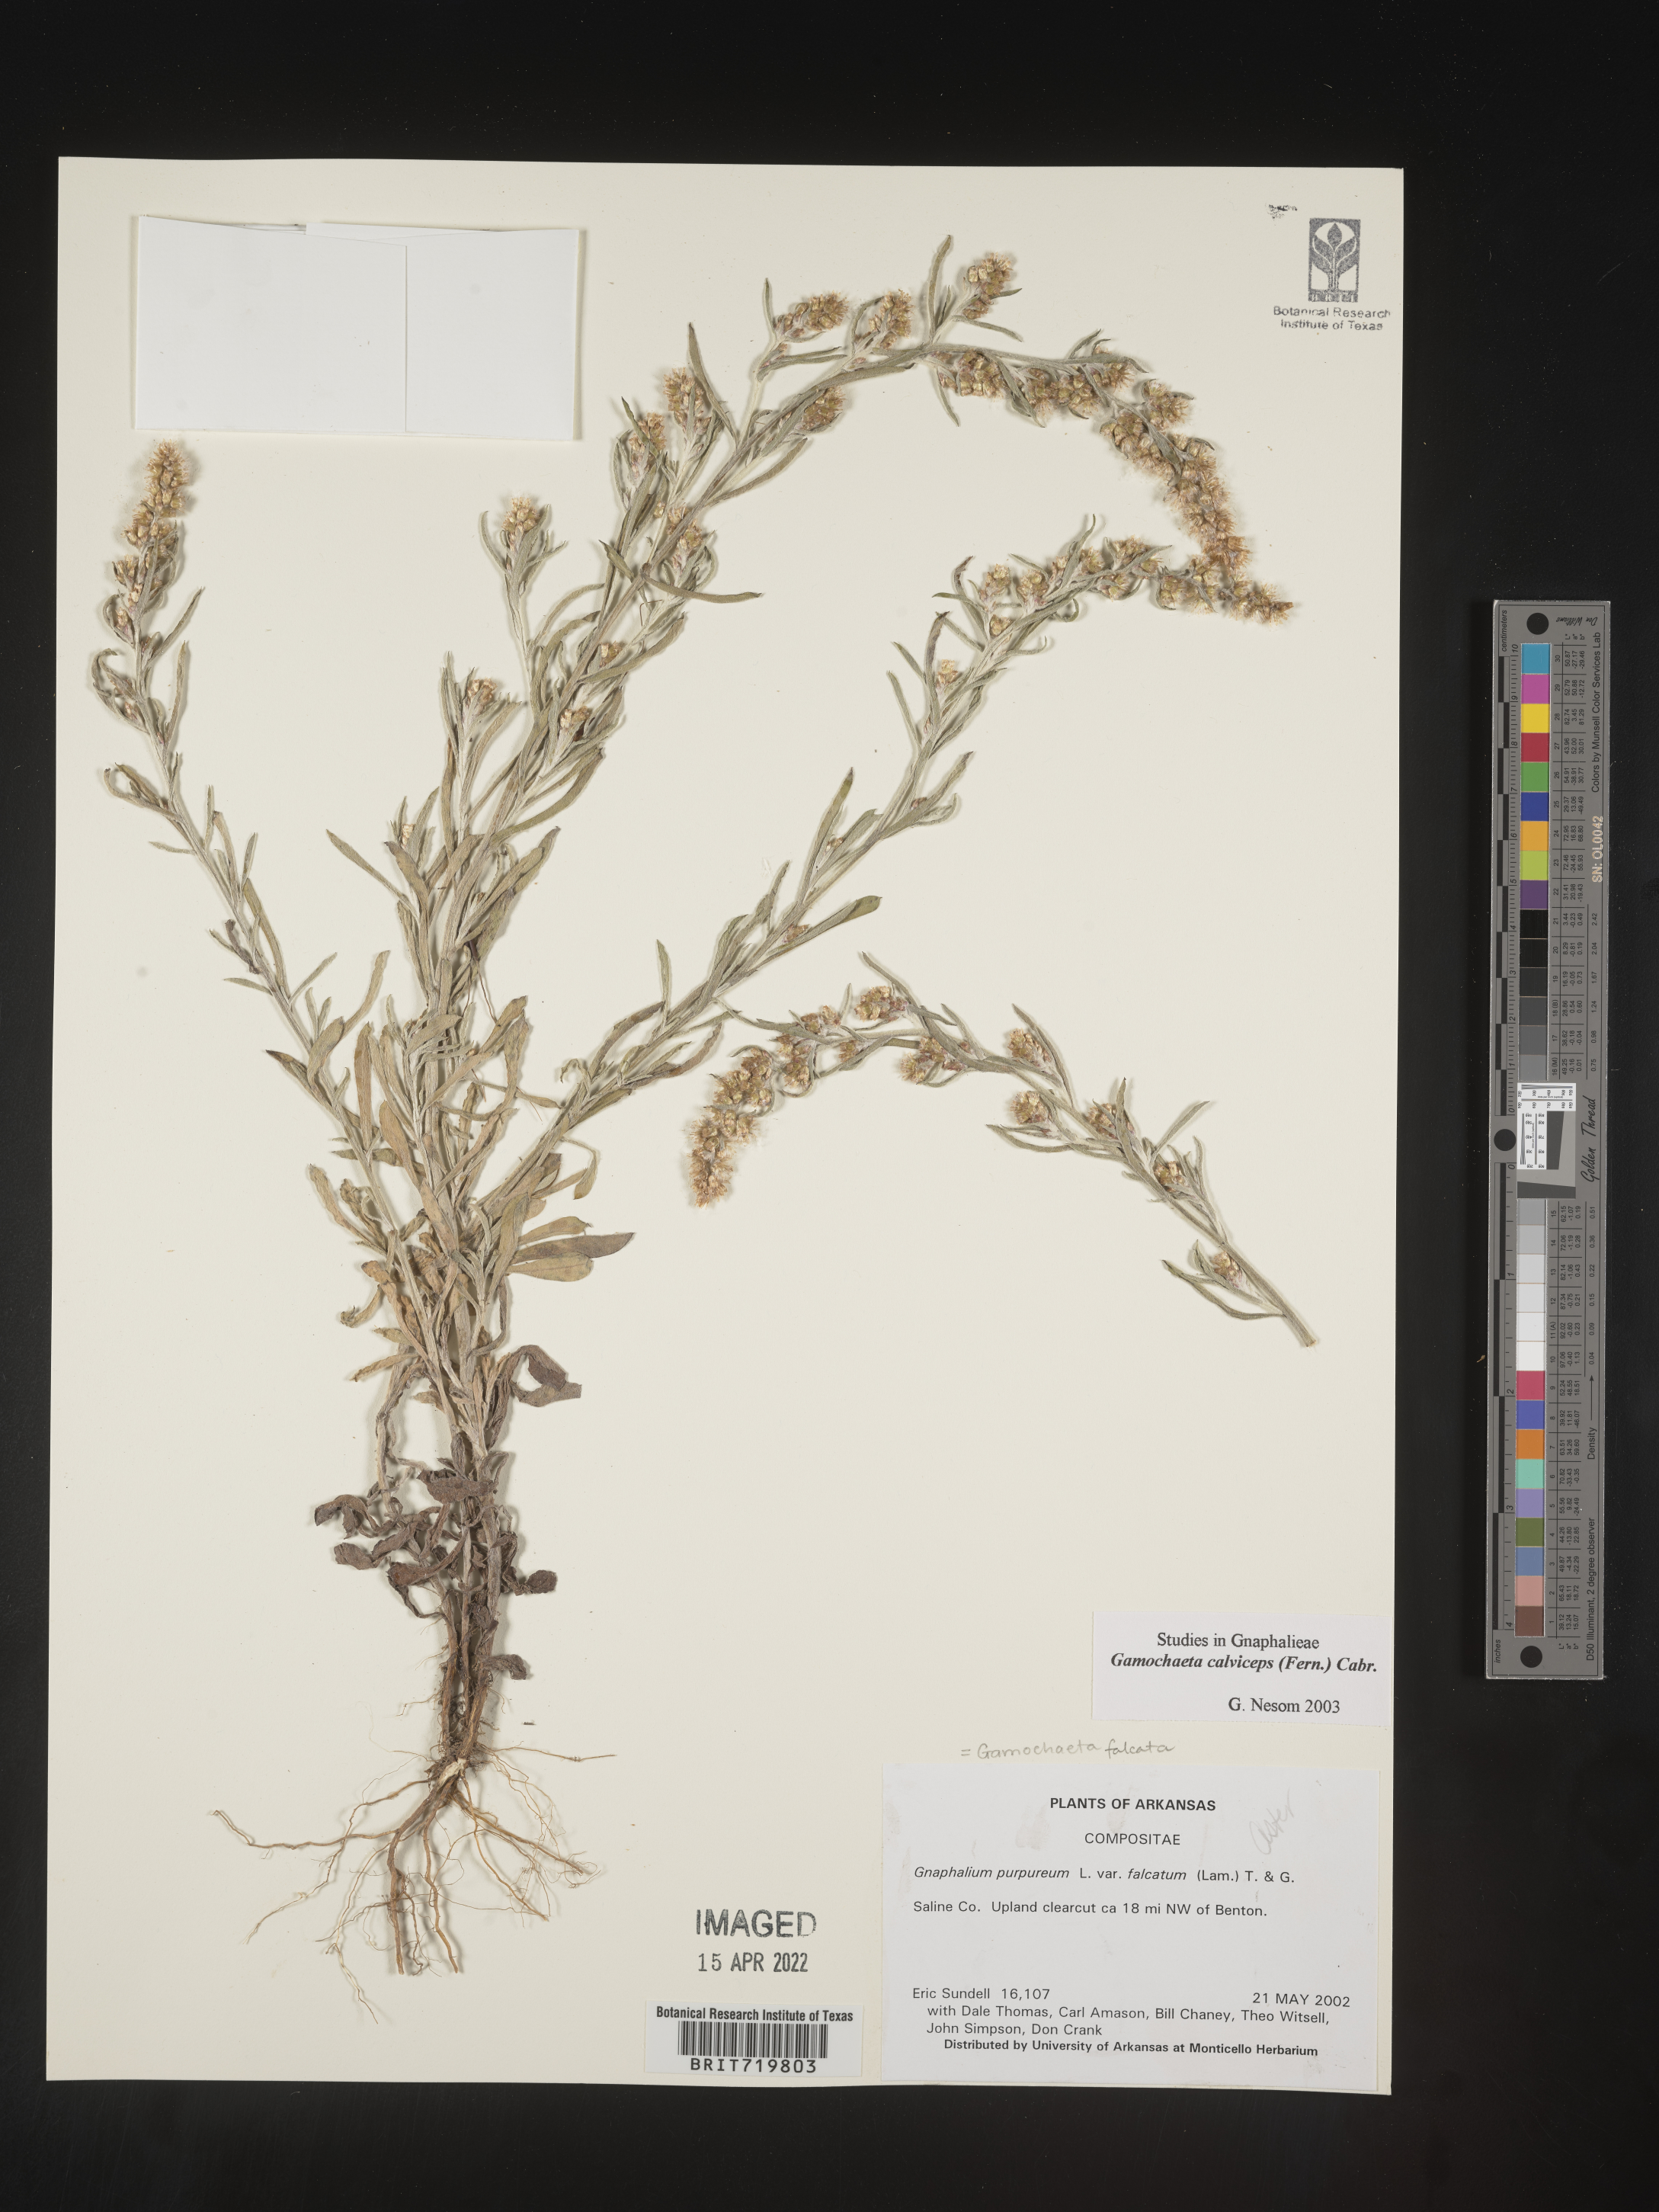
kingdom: Plantae
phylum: Tracheophyta
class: Magnoliopsida
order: Asterales
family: Asteraceae
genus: Gamochaeta
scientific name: Gamochaeta calviceps
